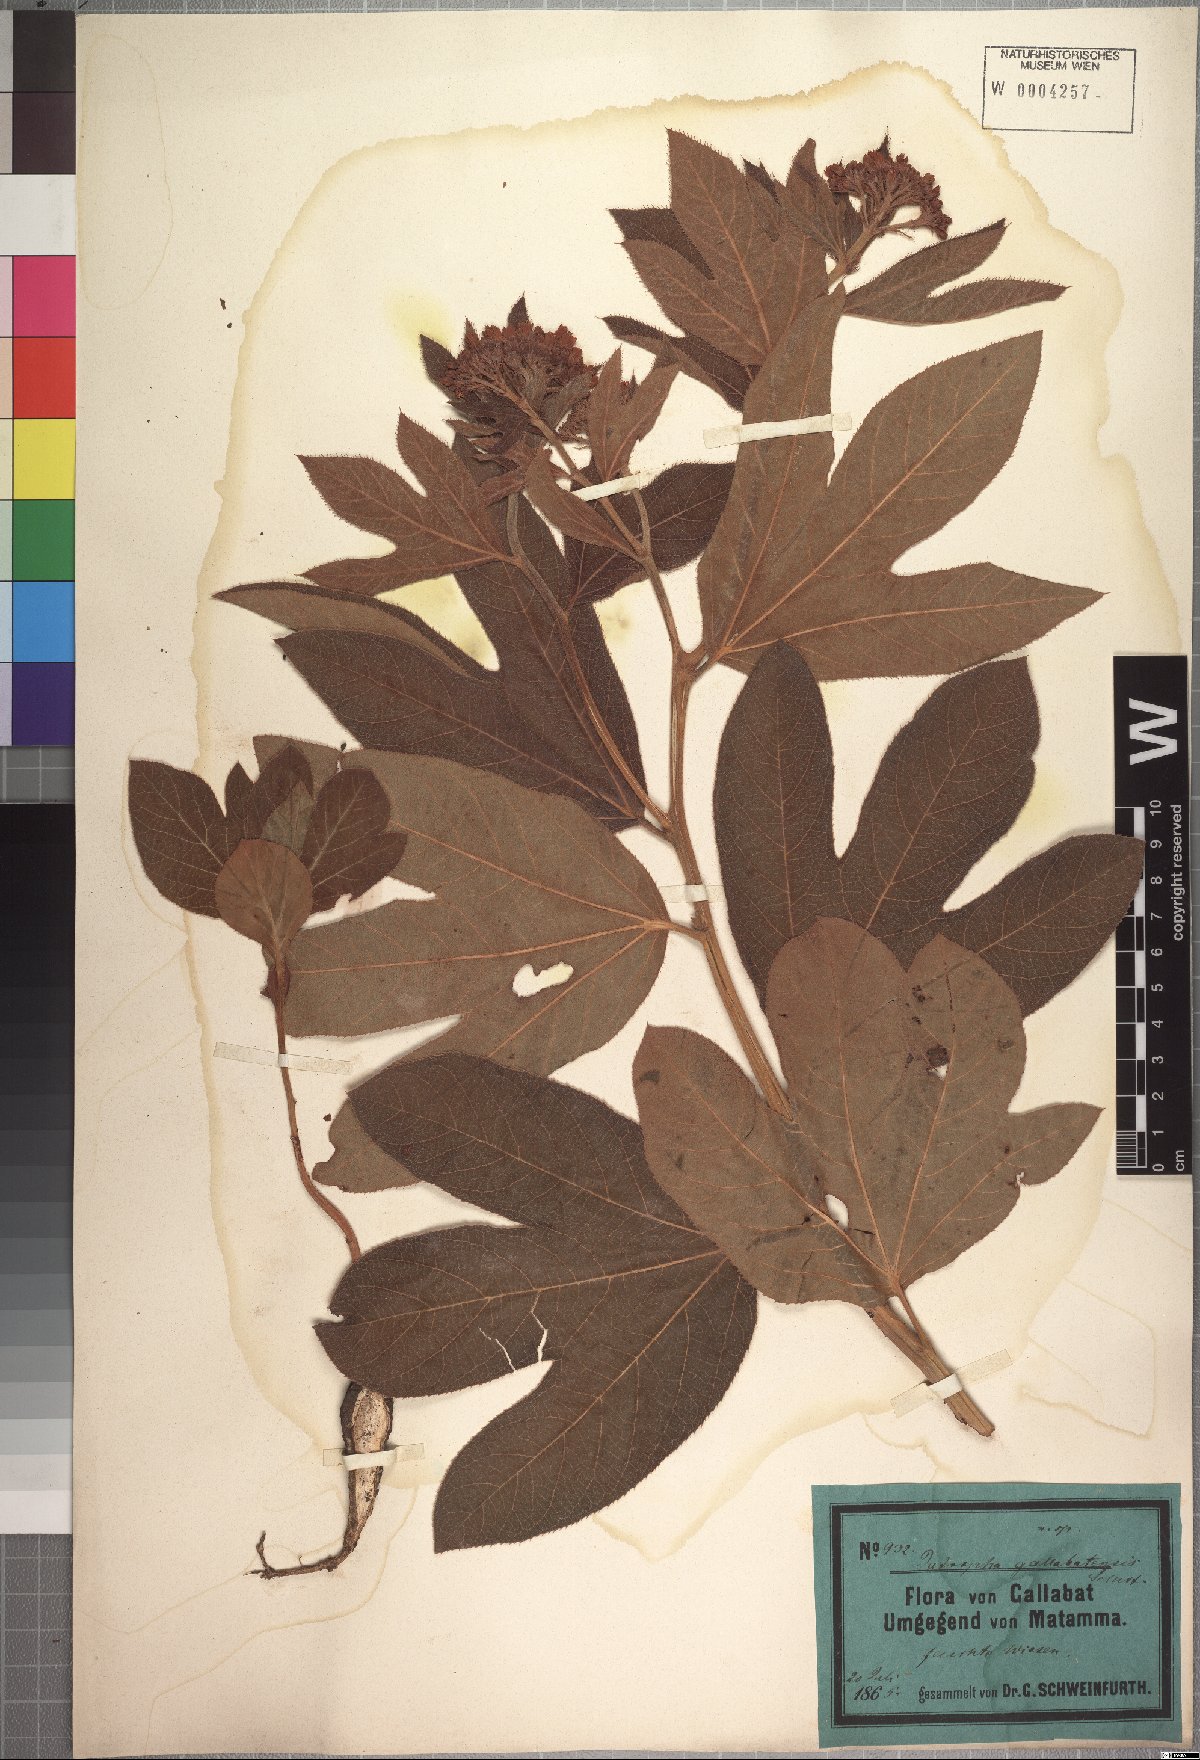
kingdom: Plantae
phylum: Tracheophyta
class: Magnoliopsida
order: Malpighiales
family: Euphorbiaceae
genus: Jatropha
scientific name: Jatropha gallabatensis
